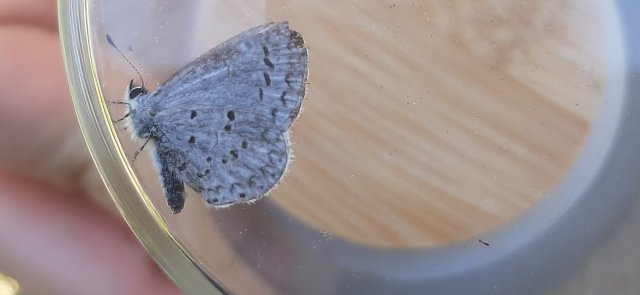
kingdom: Animalia
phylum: Arthropoda
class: Insecta
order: Lepidoptera
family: Lycaenidae
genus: Celastrina
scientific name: Celastrina lucia
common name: Northern Spring Azure
